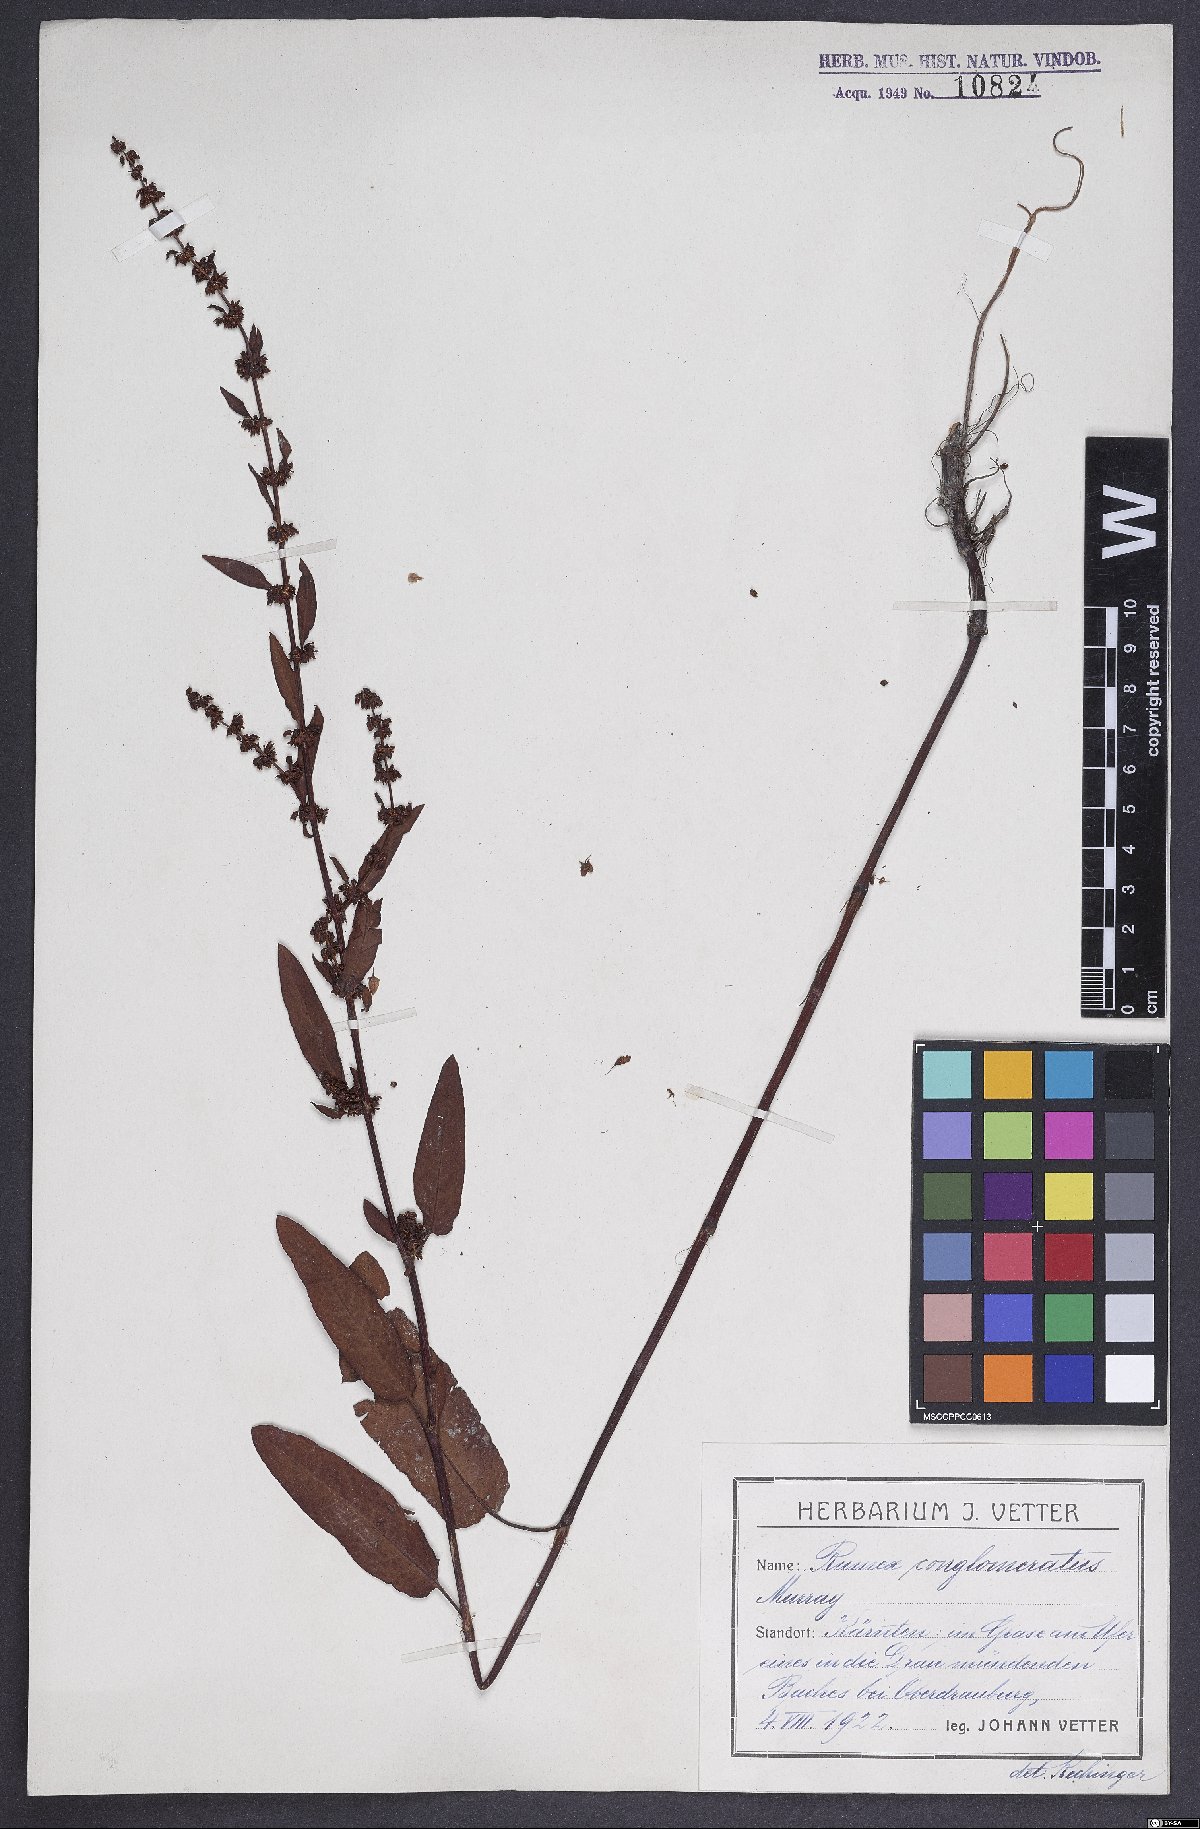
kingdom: Plantae
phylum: Tracheophyta
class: Magnoliopsida
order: Caryophyllales
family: Polygonaceae
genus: Rumex
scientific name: Rumex conglomeratus
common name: Clustered dock
